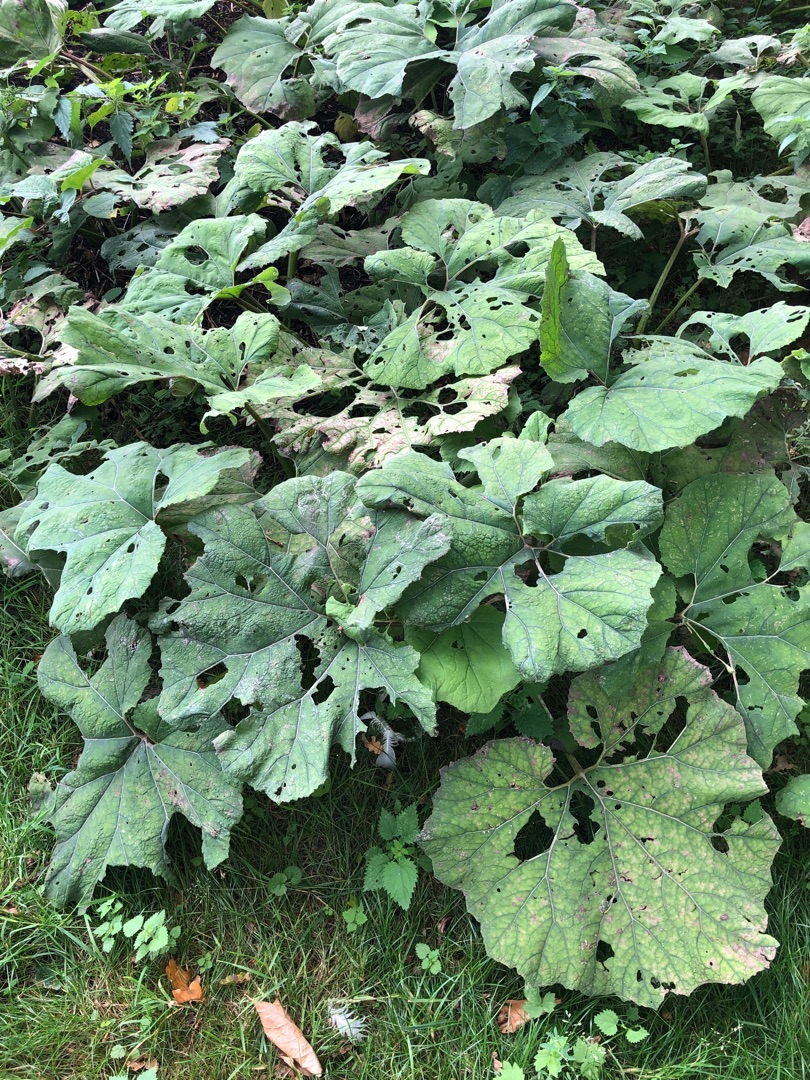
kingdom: Plantae
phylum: Tracheophyta
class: Magnoliopsida
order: Asterales
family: Asteraceae
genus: Petasites
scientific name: Petasites hybridus
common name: Rød hestehov
